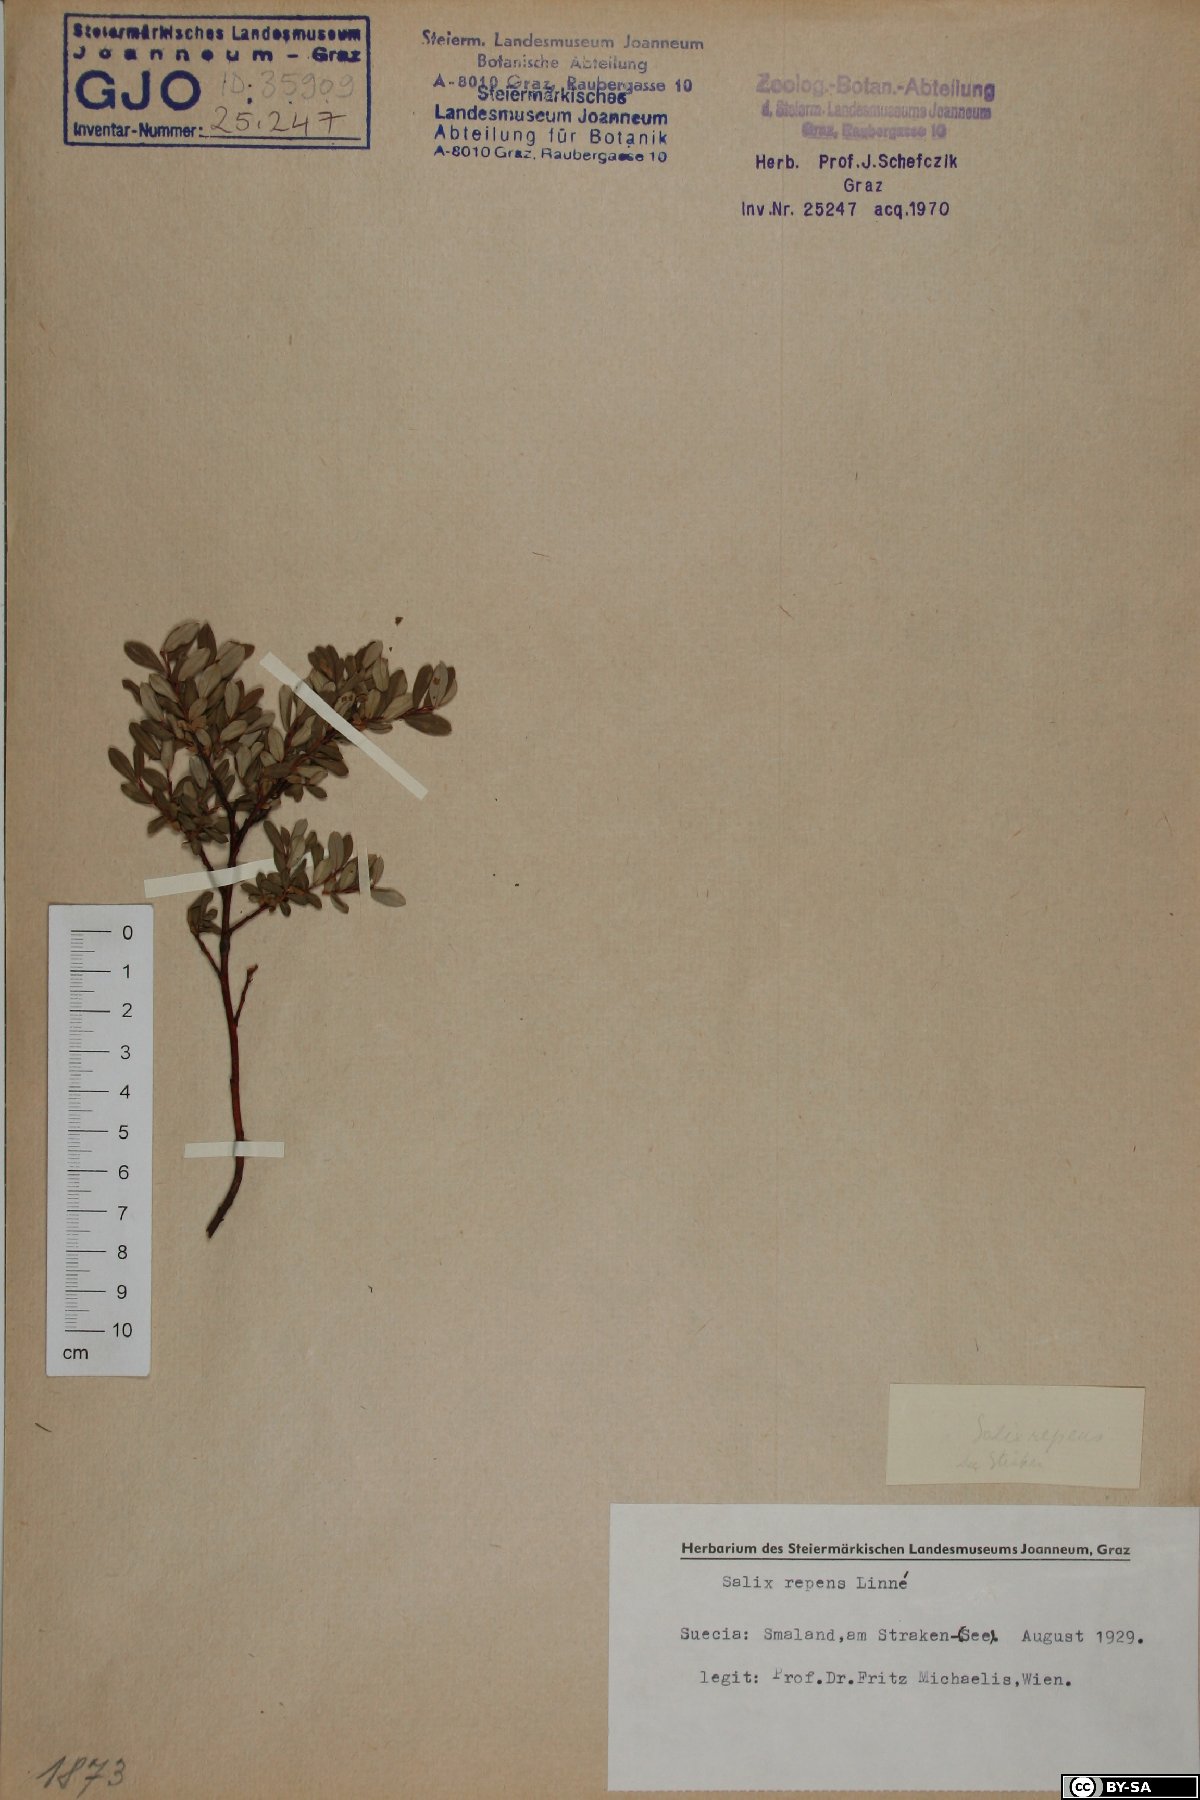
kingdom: Plantae
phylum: Tracheophyta
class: Magnoliopsida
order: Malpighiales
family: Salicaceae
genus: Salix
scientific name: Salix repens
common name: Creeping willow
